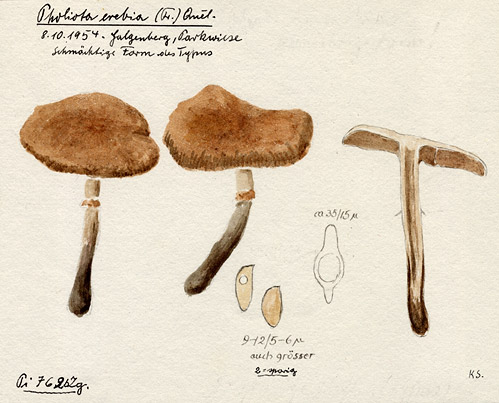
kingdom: Fungi
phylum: Basidiomycota
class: Agaricomycetes
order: Agaricales
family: Tubariaceae
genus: Cyclocybe
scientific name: Cyclocybe erebia
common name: Dark fieldcap
